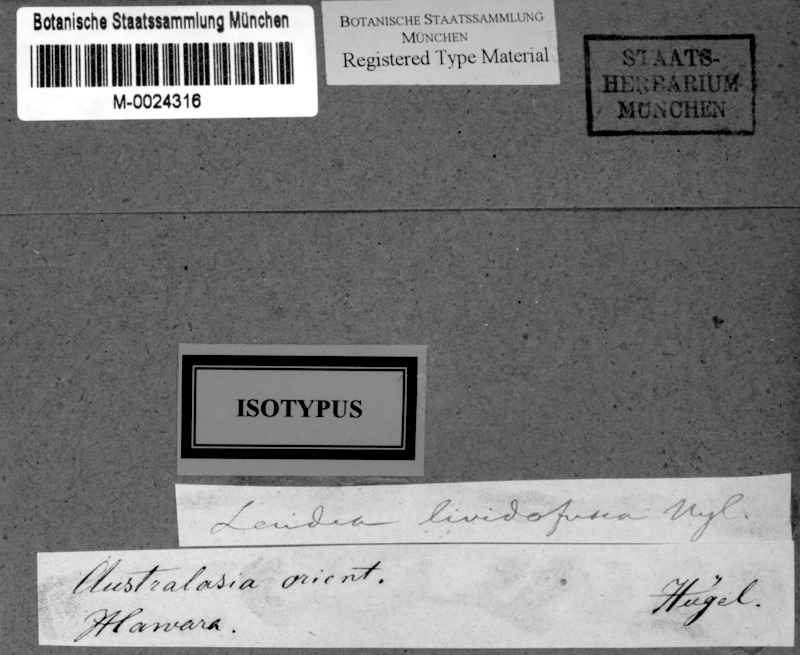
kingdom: Fungi
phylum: Ascomycota
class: Lecanoromycetes
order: Lecanorales
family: Ramalinaceae
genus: Bacidia
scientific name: Bacidia lividofusca
